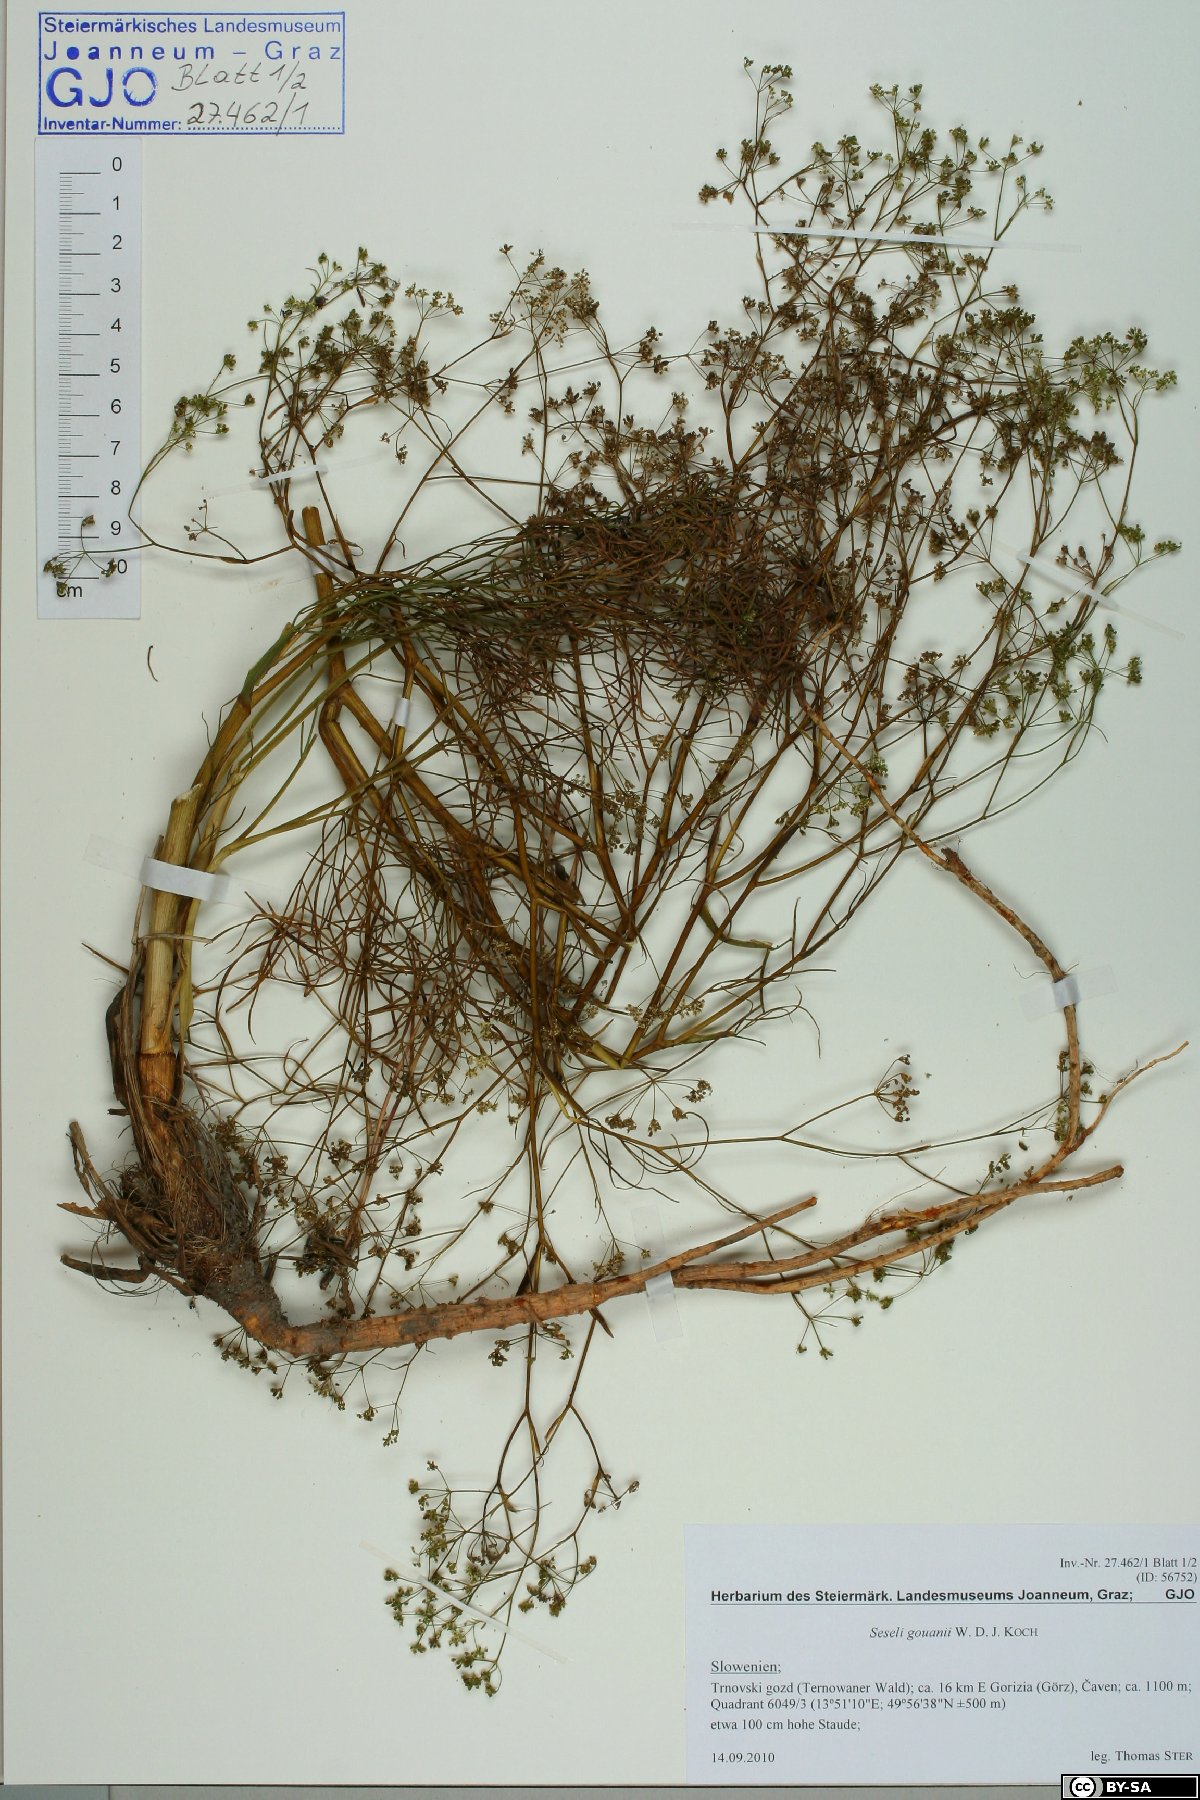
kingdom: Plantae
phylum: Tracheophyta
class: Magnoliopsida
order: Apiales
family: Apiaceae
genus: Seseli
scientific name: Seseli gouanii
